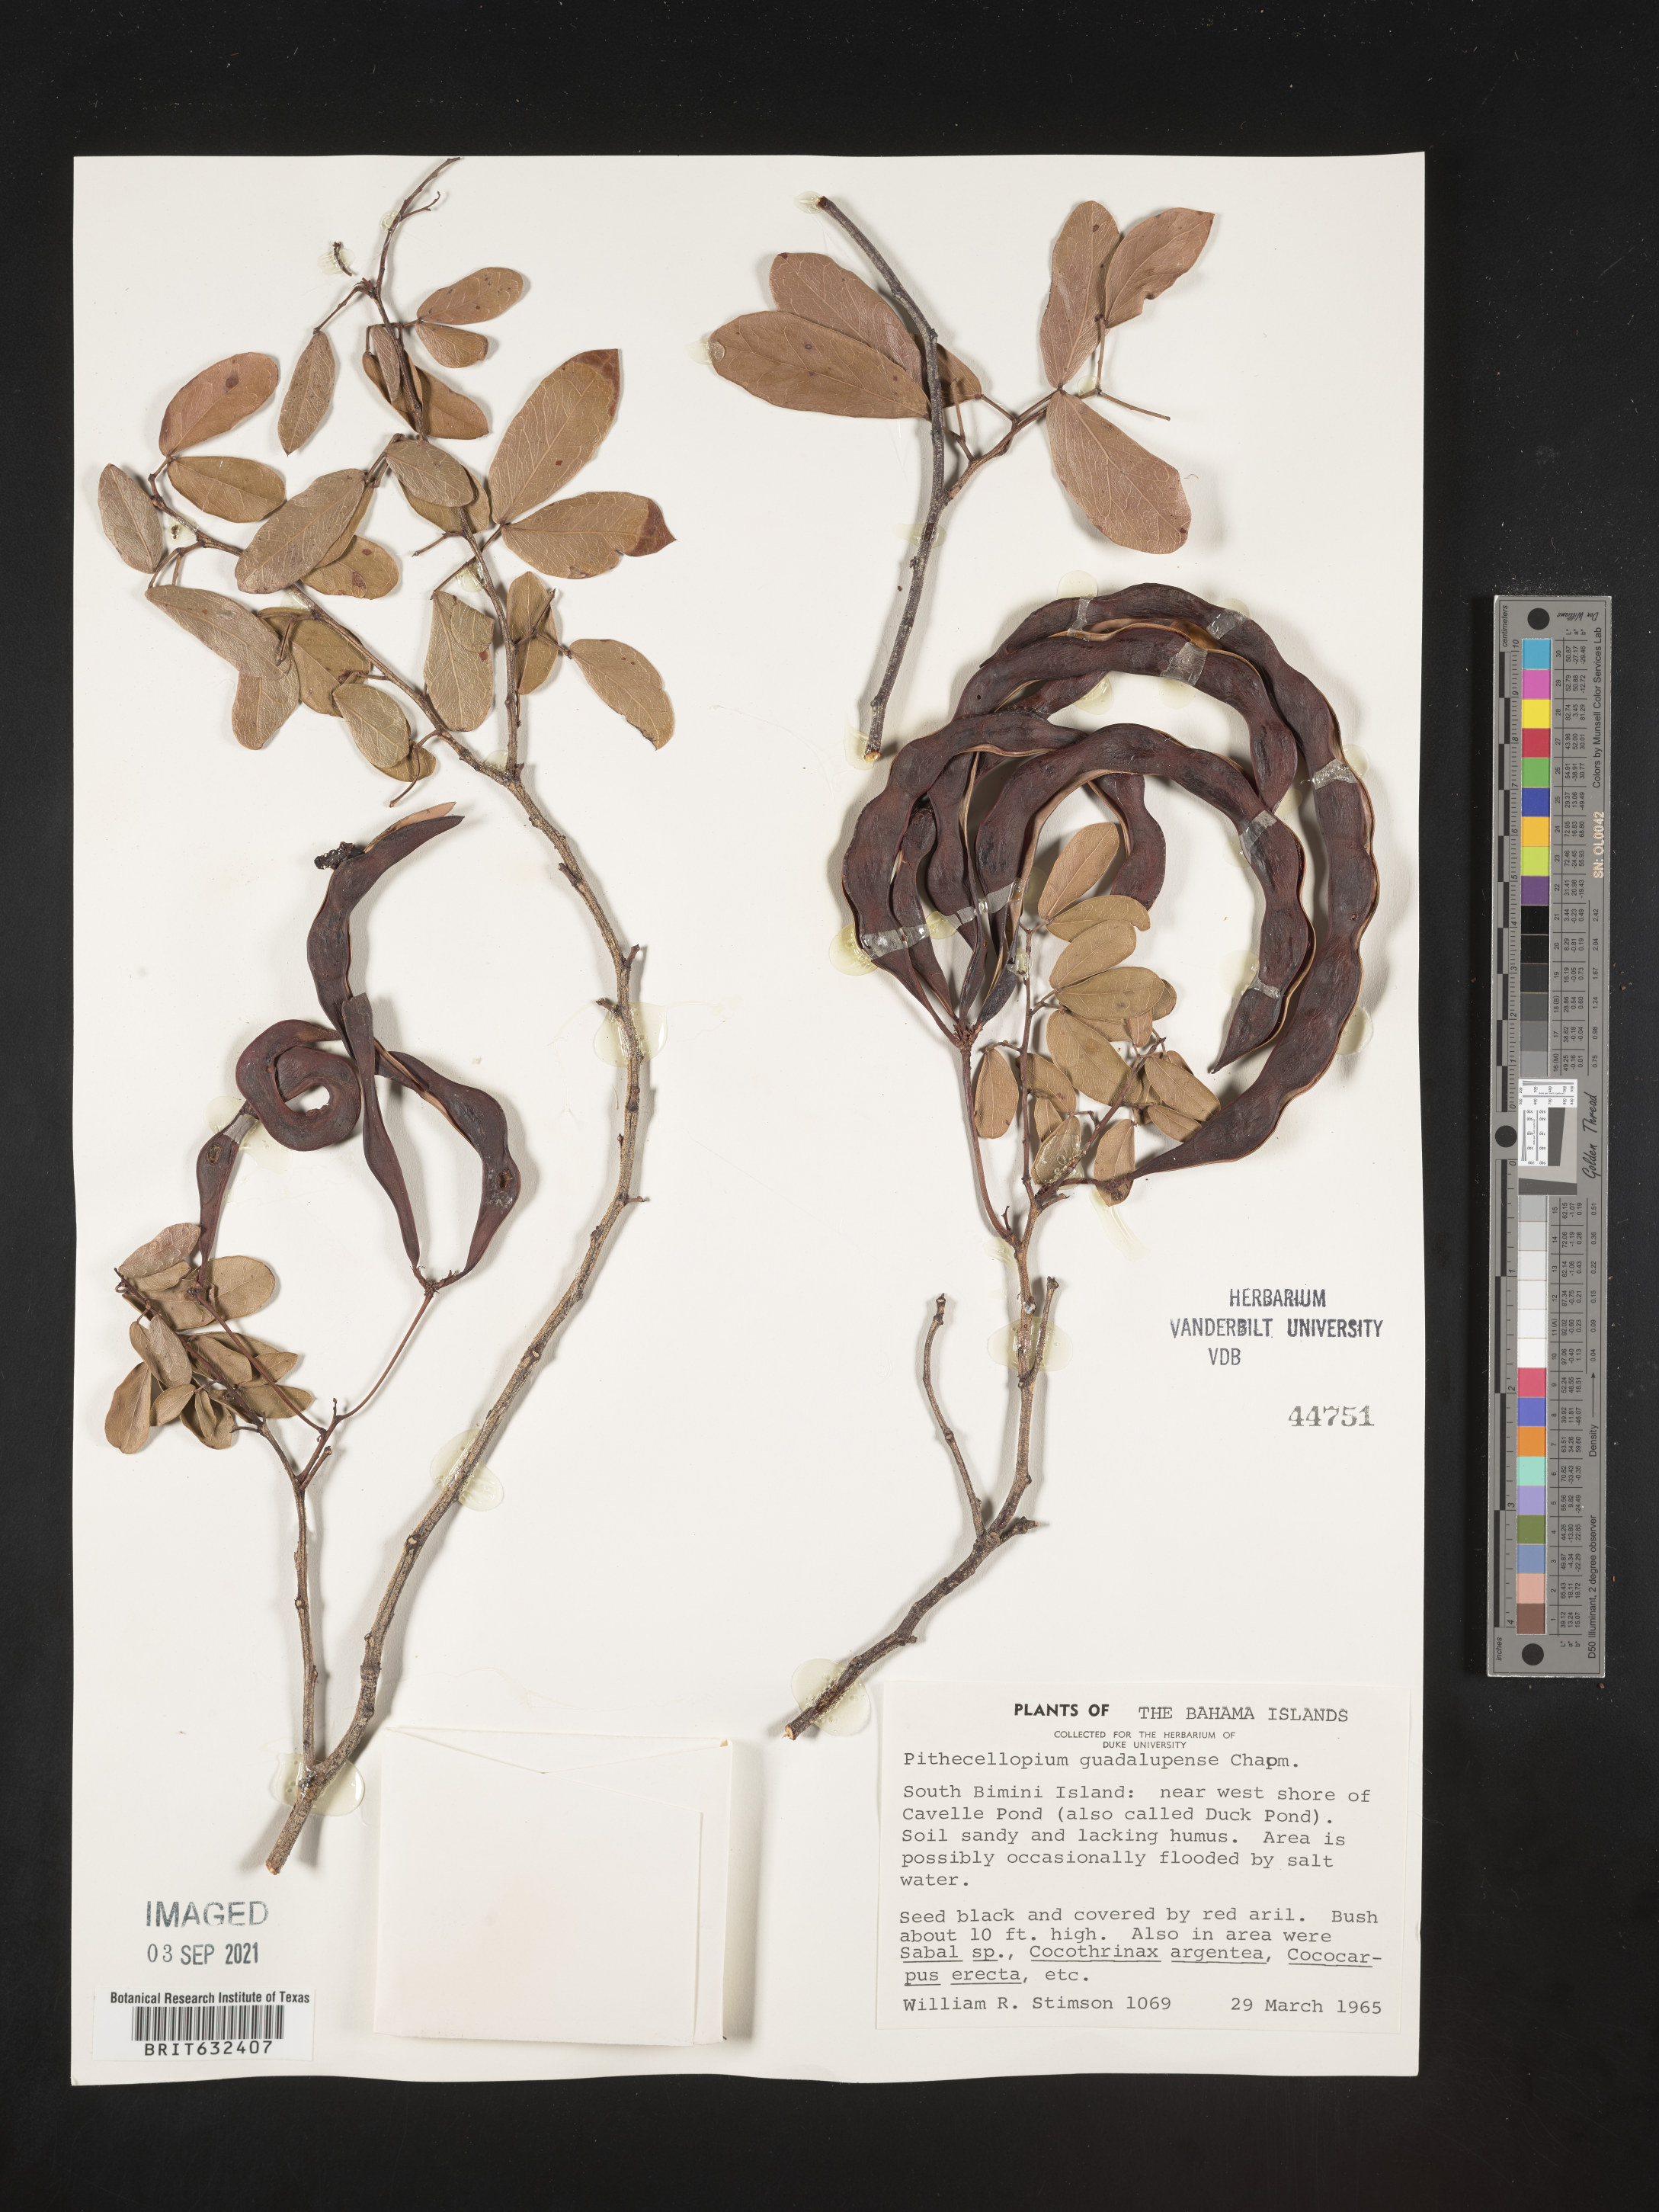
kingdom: Plantae
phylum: Tracheophyta
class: Magnoliopsida
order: Fabales
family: Fabaceae
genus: Pithecellobium
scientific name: Pithecellobium
